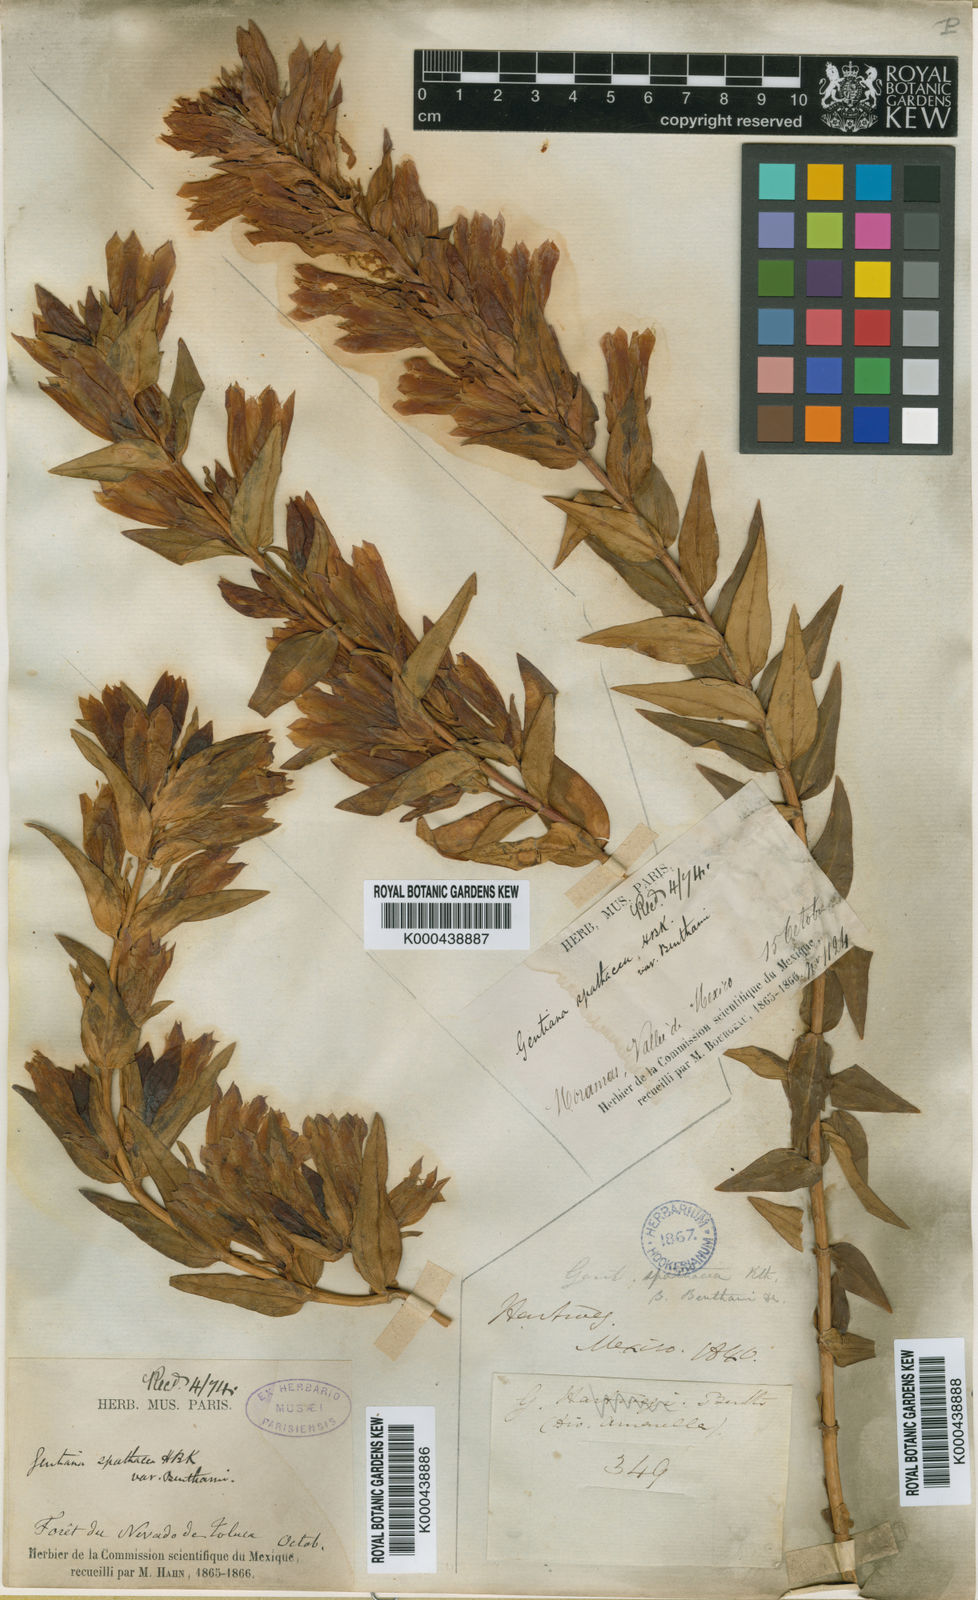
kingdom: Plantae
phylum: Tracheophyta
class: Magnoliopsida
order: Gentianales
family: Gentianaceae
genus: Gentiana
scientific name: Gentiana spathacea
